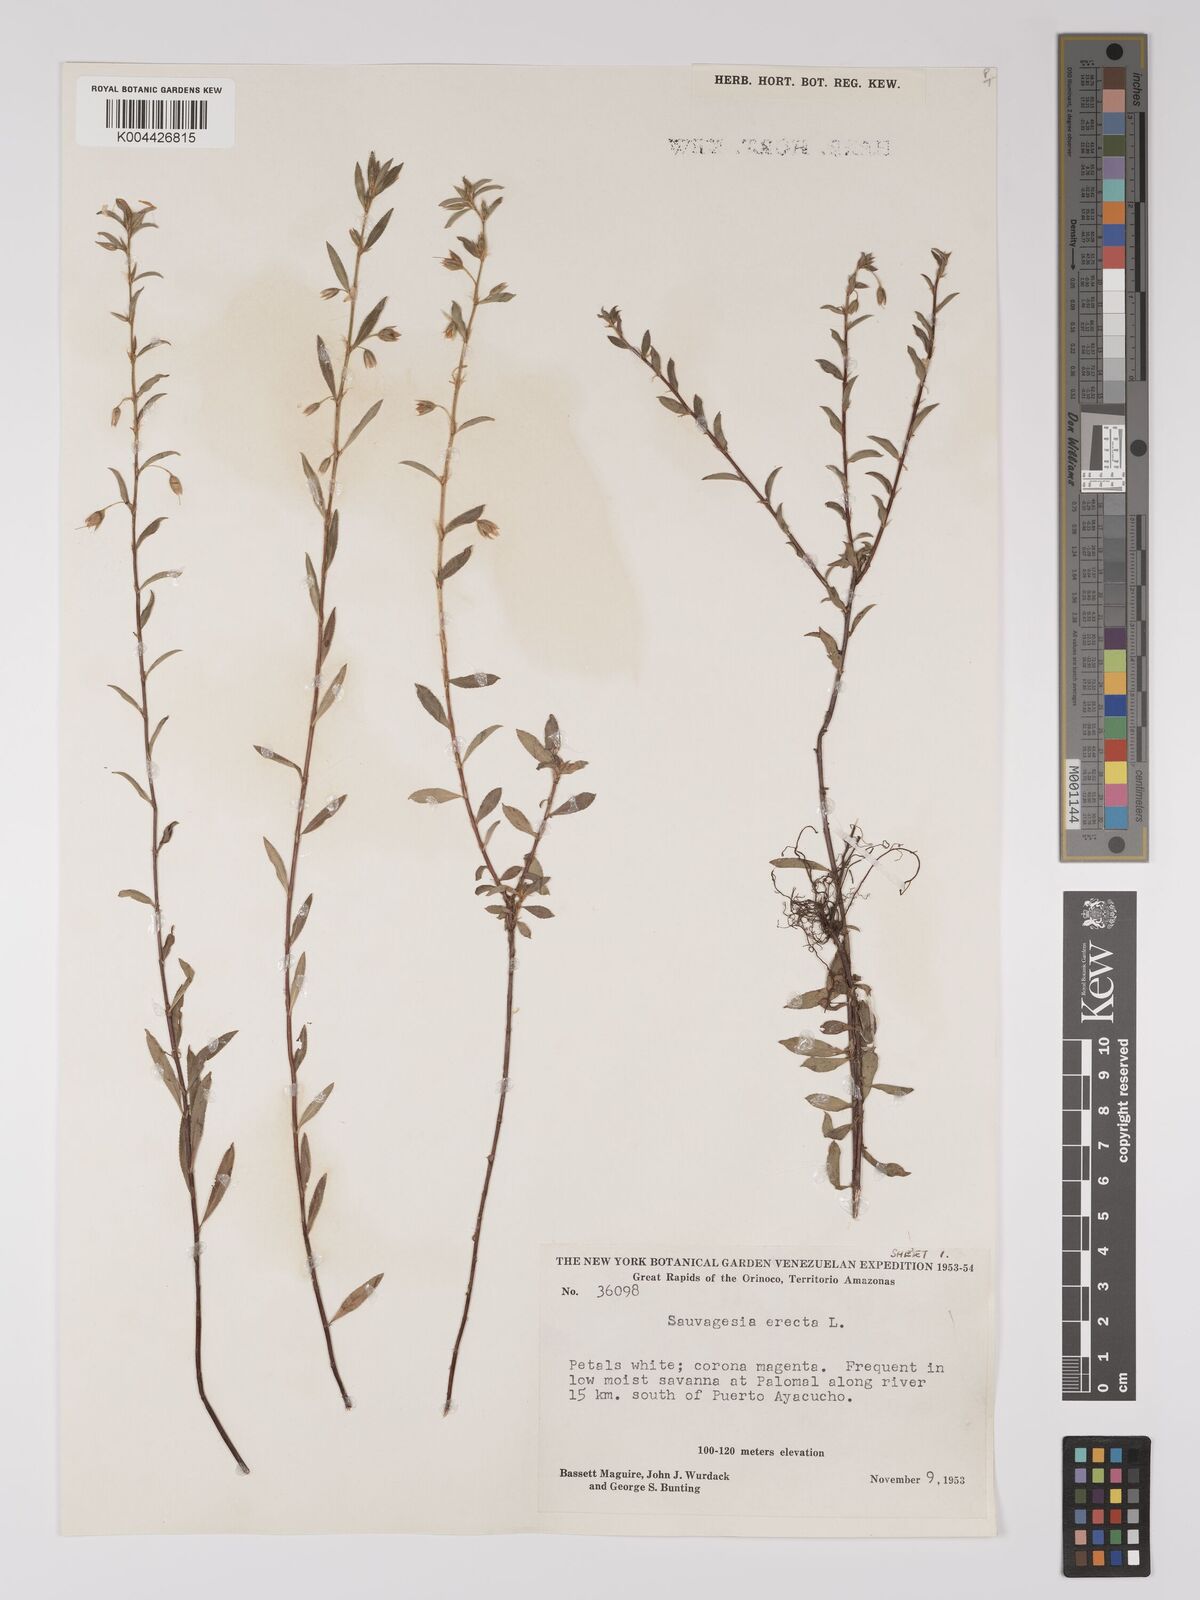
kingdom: Plantae
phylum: Tracheophyta
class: Magnoliopsida
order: Malpighiales
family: Ochnaceae
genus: Sauvagesia
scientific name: Sauvagesia erecta
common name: Creole tea
